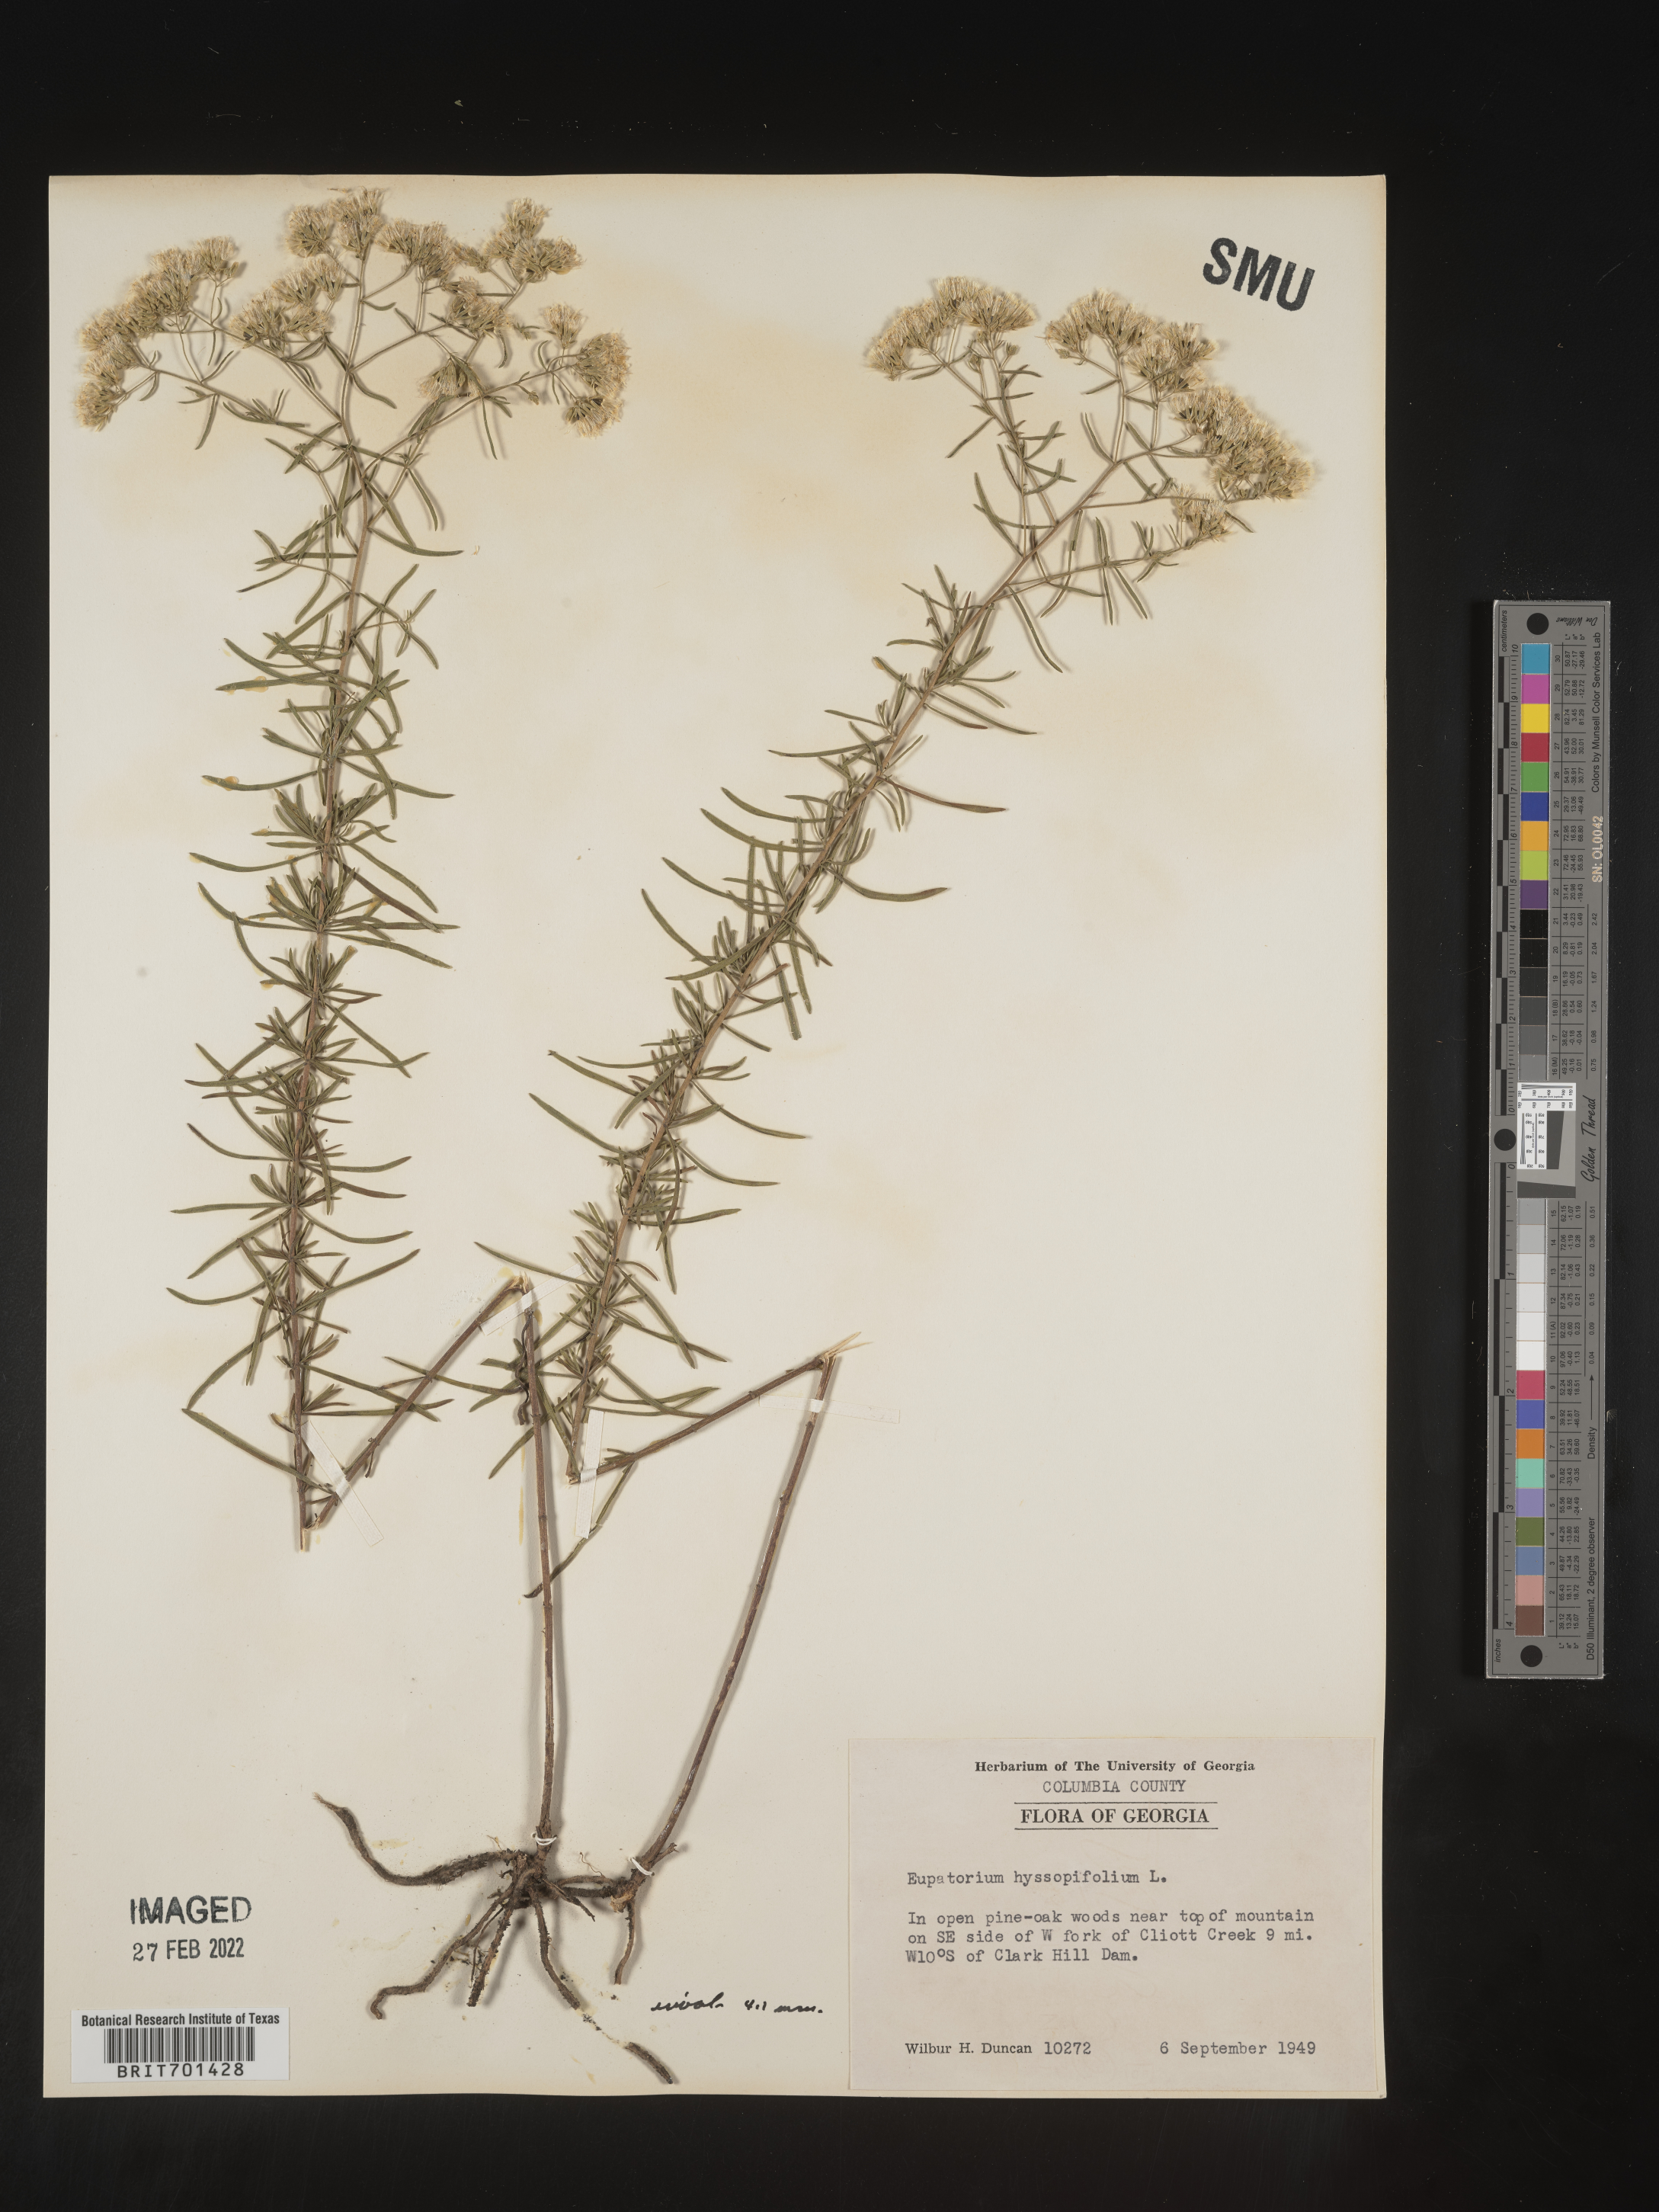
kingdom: Plantae
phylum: Tracheophyta
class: Magnoliopsida
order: Asterales
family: Asteraceae
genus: Eupatorium
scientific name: Eupatorium hyssopifolium
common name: Hyssop-leaf thoroughwort
